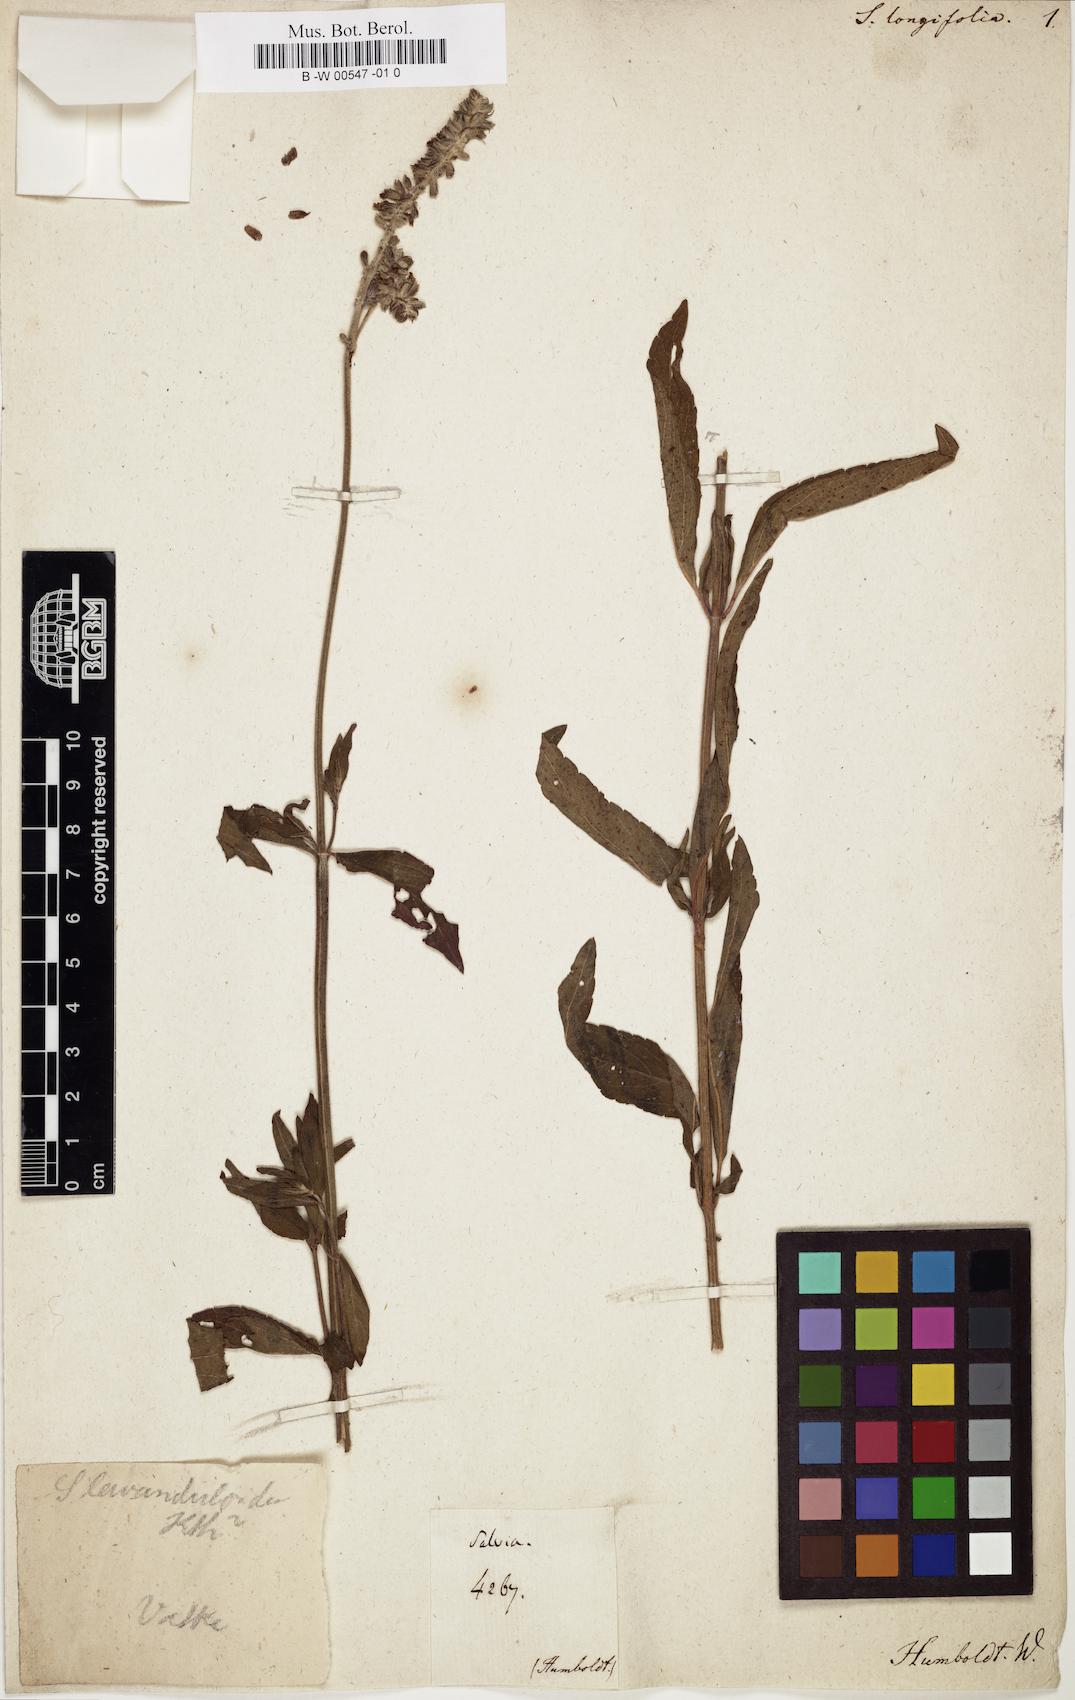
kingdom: Plantae
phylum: Tracheophyta
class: Magnoliopsida
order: Lamiales
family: Lamiaceae
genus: Salvia
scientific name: Salvia longifolia
